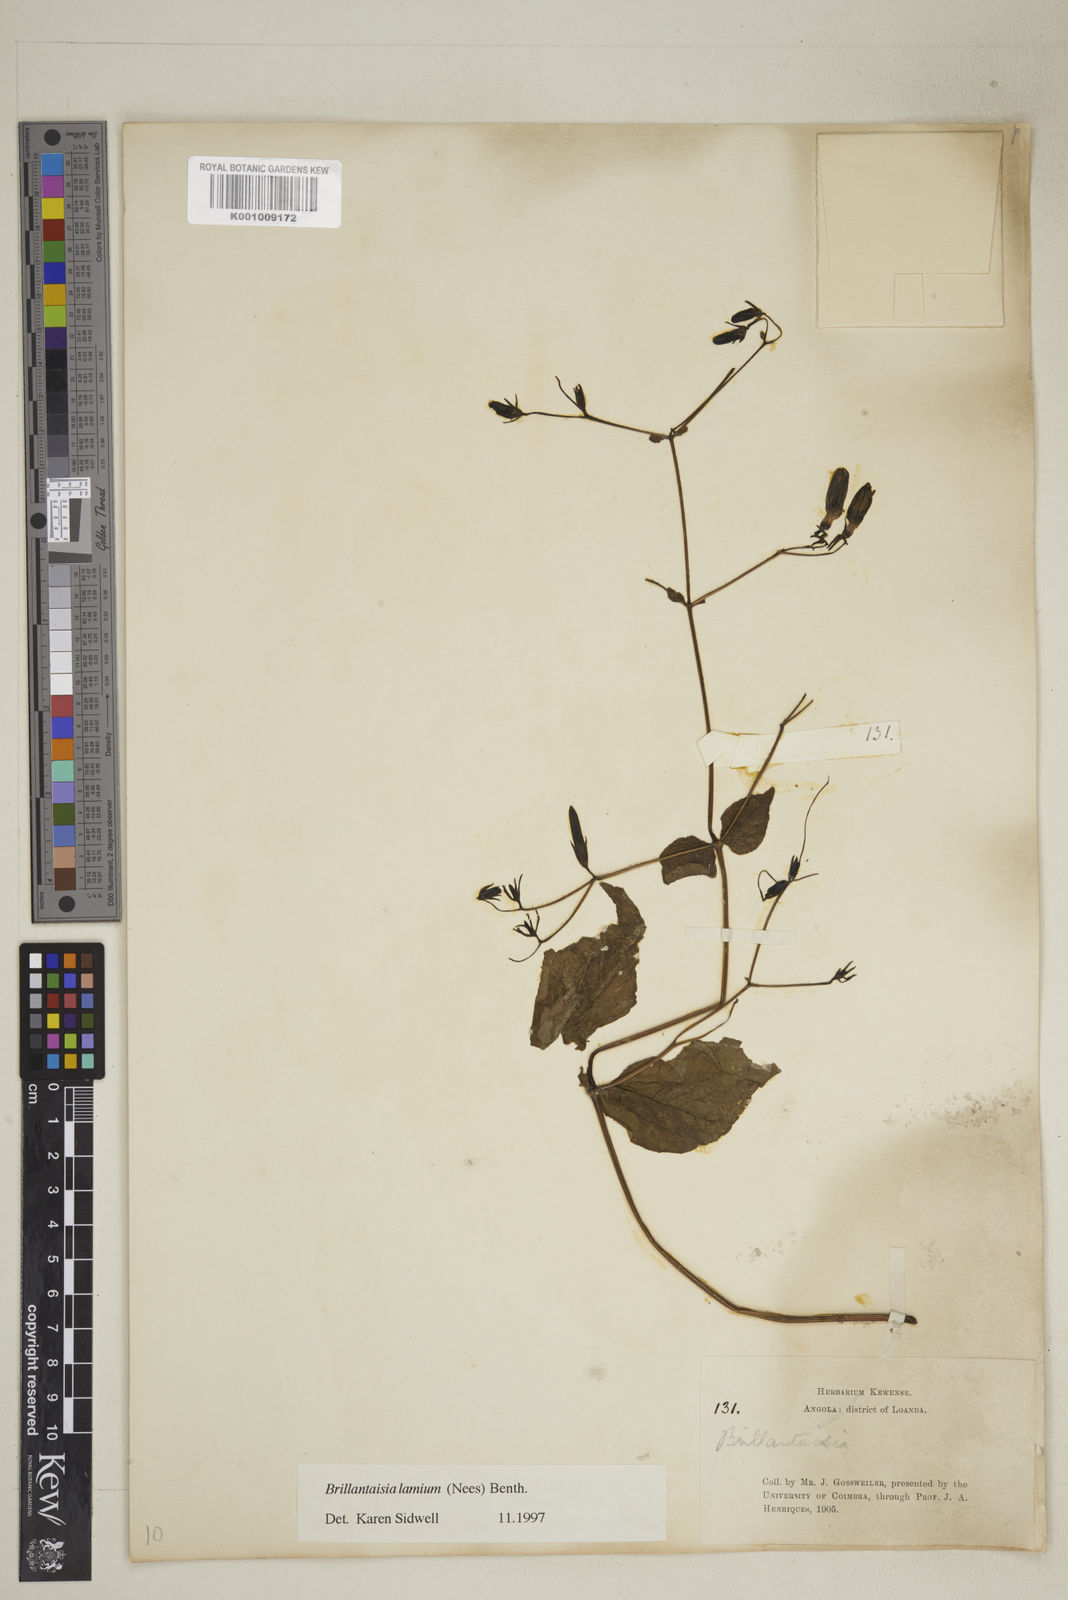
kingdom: Plantae
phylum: Tracheophyta
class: Magnoliopsida
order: Lamiales
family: Acanthaceae
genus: Brillantaisia
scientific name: Brillantaisia lamium
